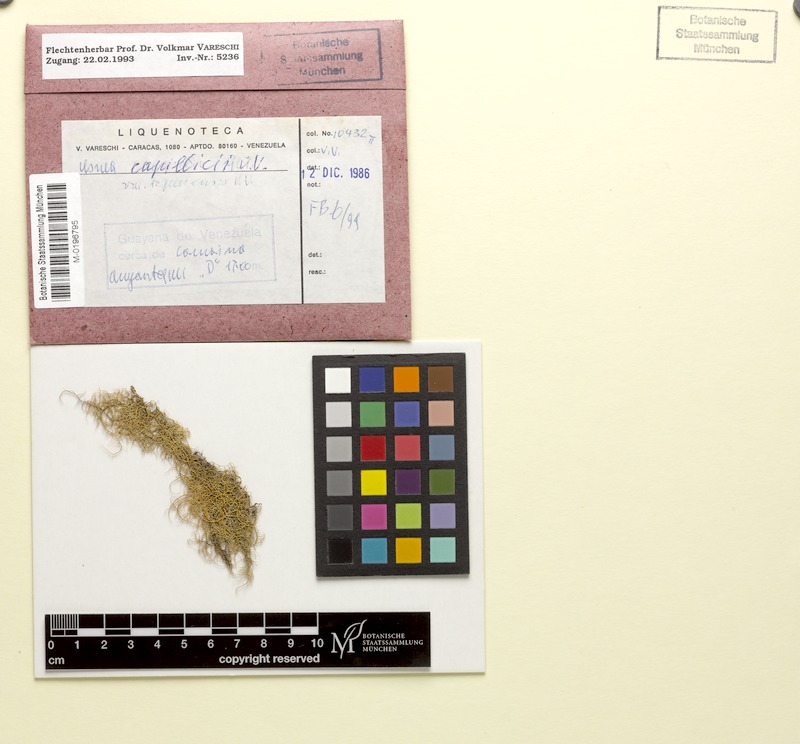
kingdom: Fungi
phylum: Ascomycota
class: Lecanoromycetes
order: Lecanorales
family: Parmeliaceae
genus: Usnea
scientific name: Usnea
